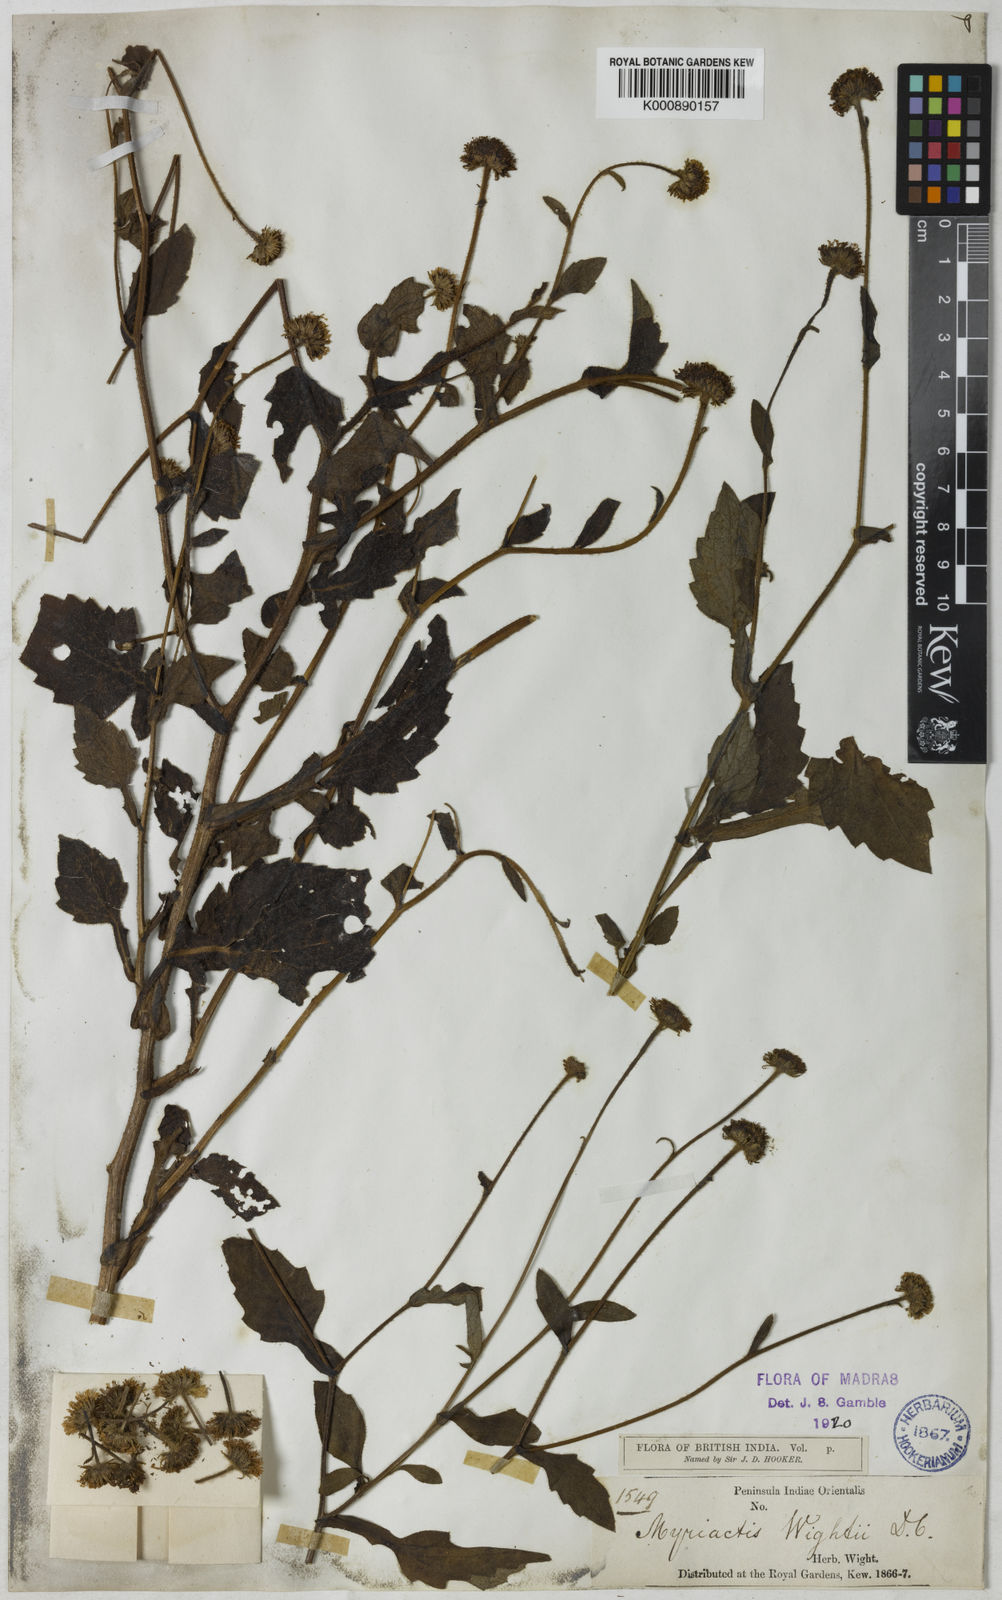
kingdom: Plantae
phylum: Tracheophyta
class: Magnoliopsida
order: Asterales
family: Asteraceae
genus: Myriactis
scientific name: Myriactis wightii
